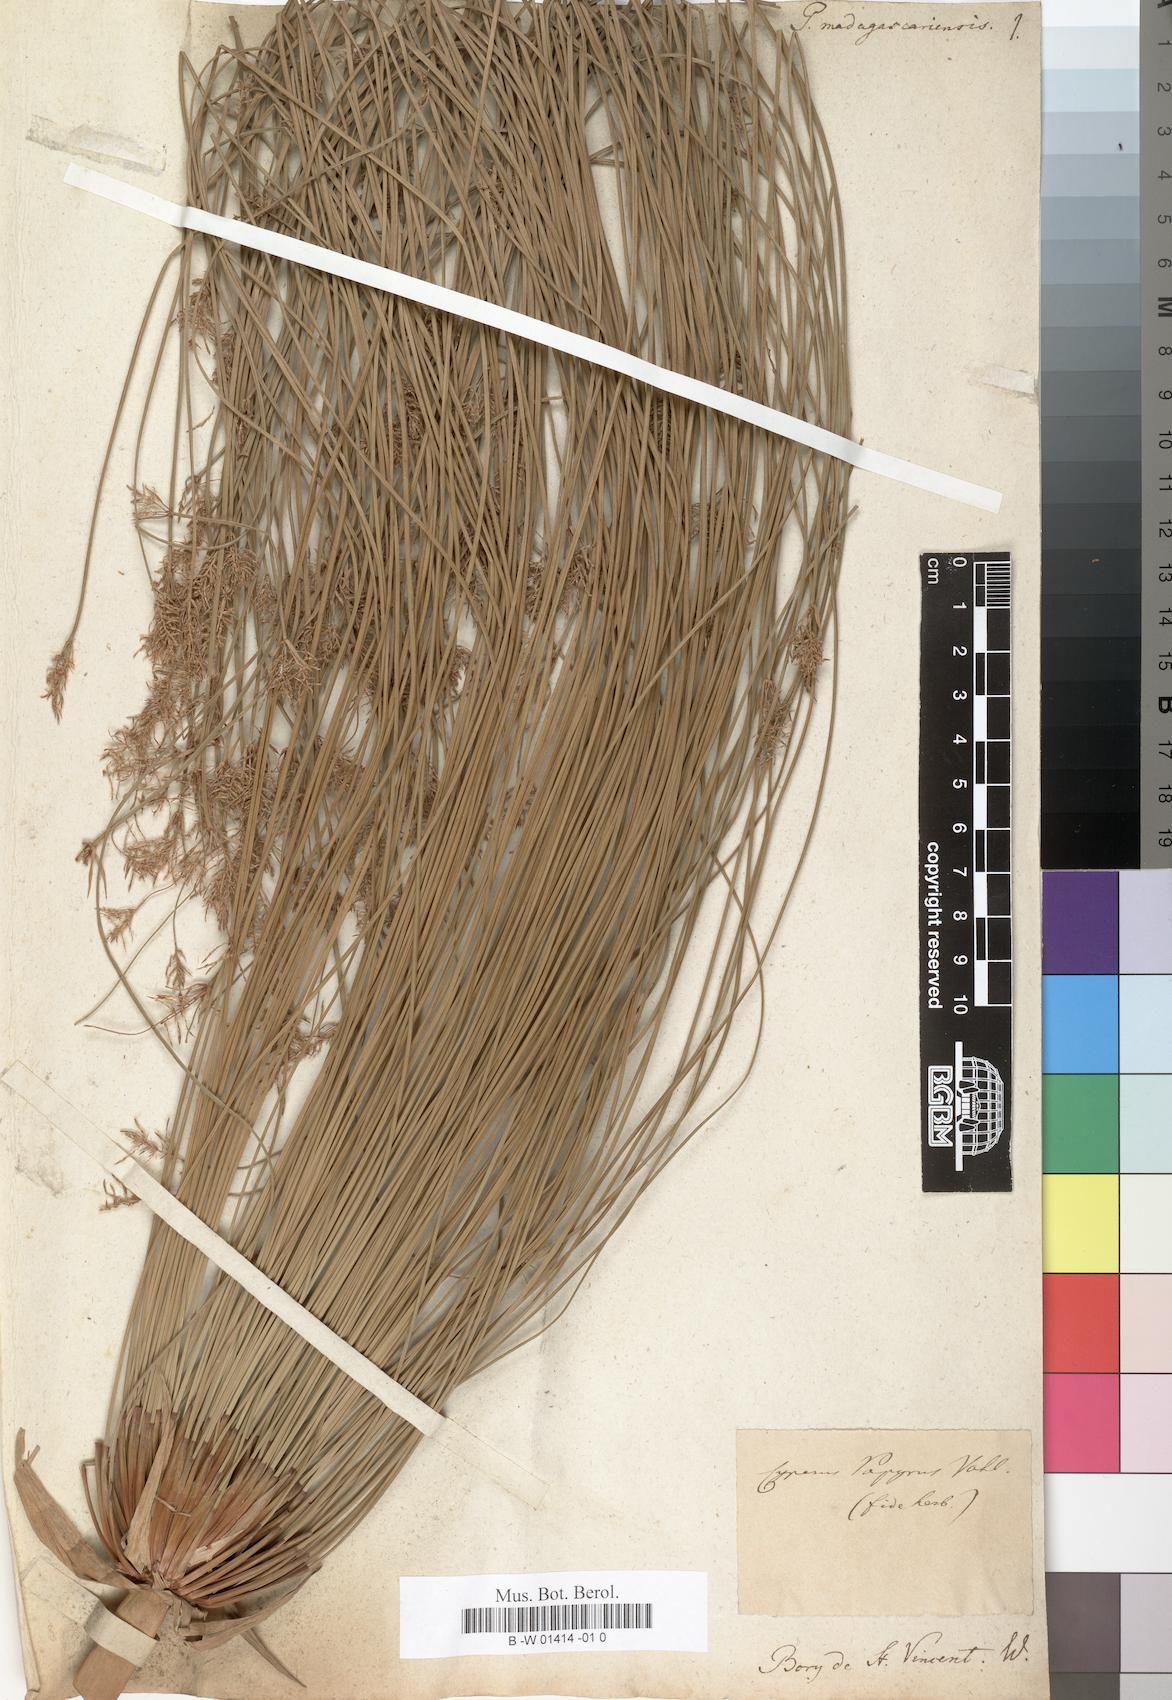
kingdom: Plantae
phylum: Tracheophyta
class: Liliopsida
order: Poales
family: Cyperaceae
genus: Cyperus
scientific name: Cyperus papyrus
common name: Papyrus
